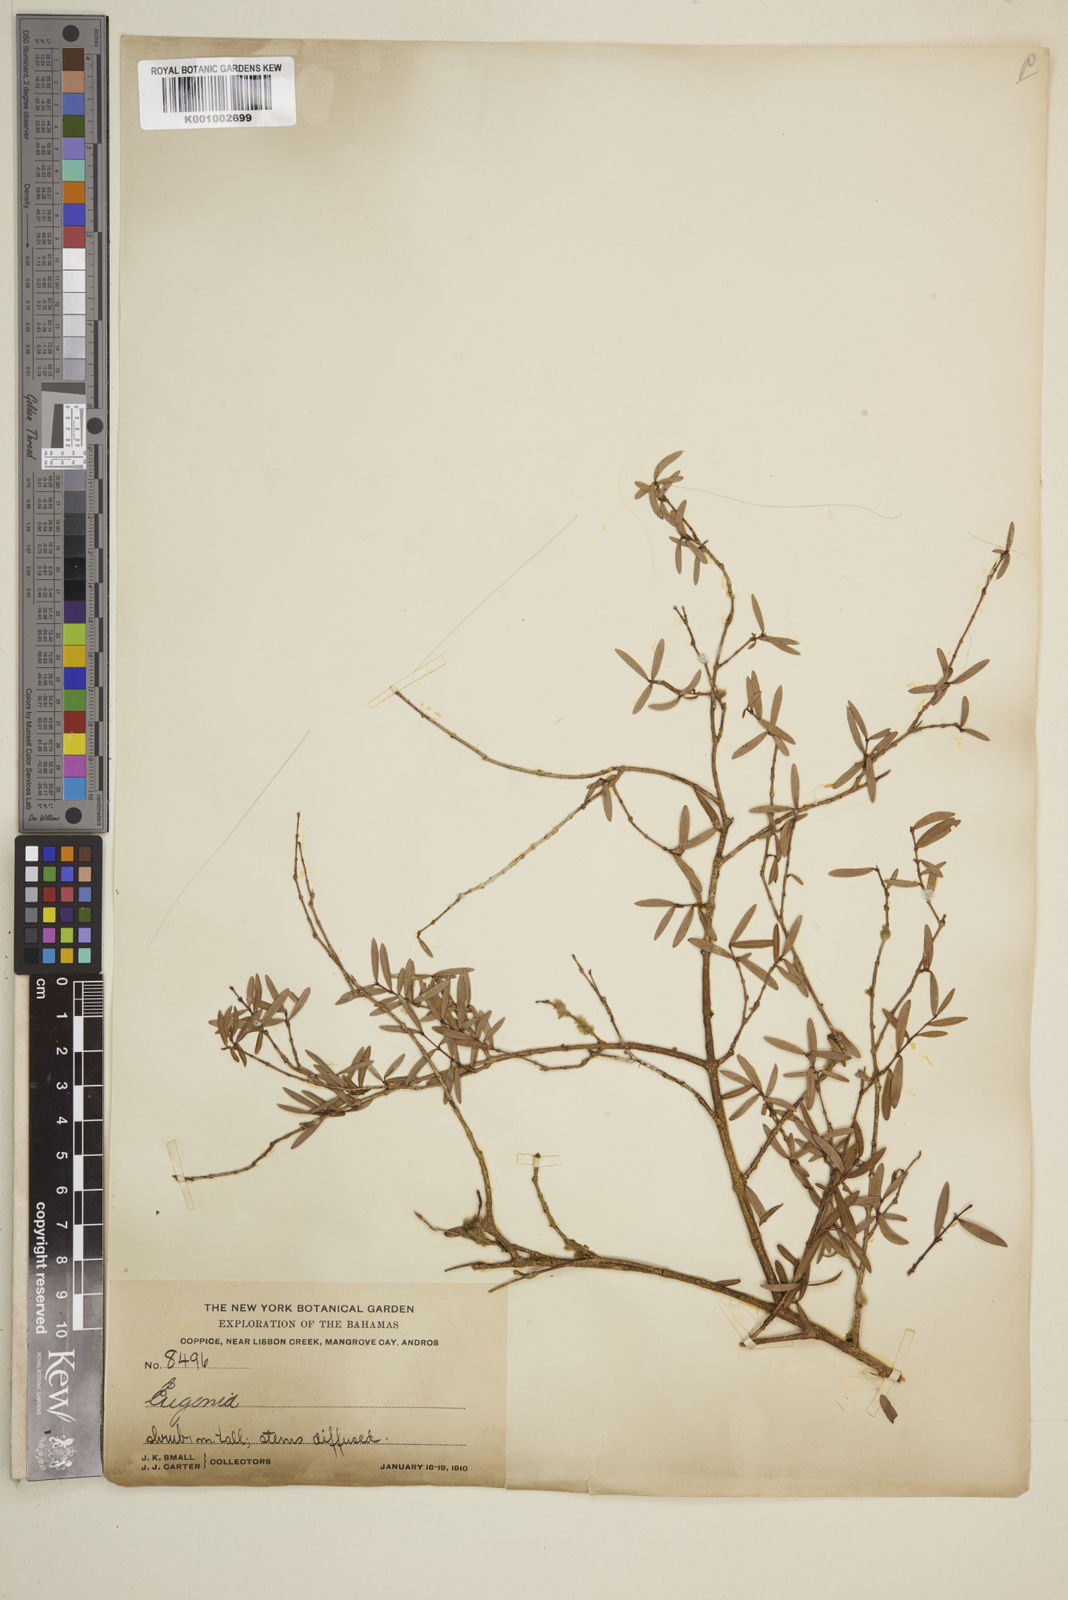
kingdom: Plantae
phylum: Tracheophyta
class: Magnoliopsida
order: Myrtales
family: Myrtaceae
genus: Eugenia
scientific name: Eugenia
